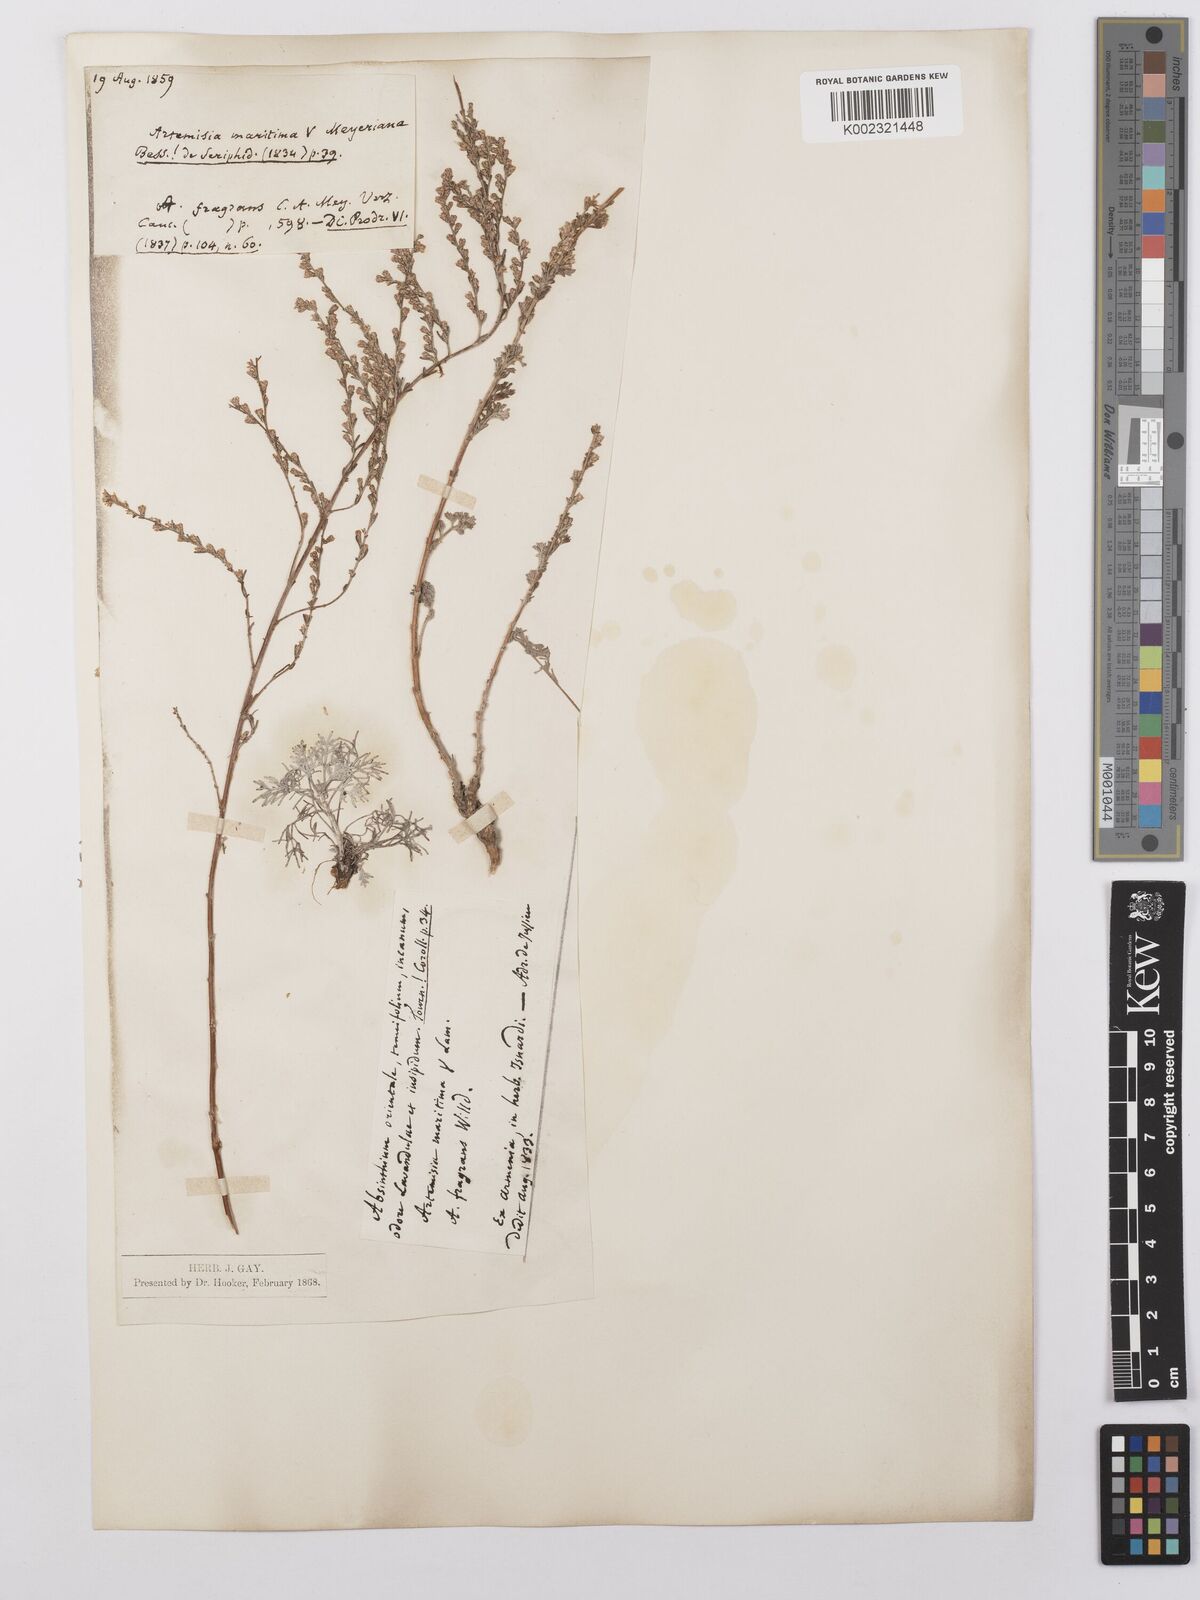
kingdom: Plantae
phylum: Tracheophyta
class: Magnoliopsida
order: Asterales
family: Asteraceae
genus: Artemisia
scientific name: Artemisia santonicum
